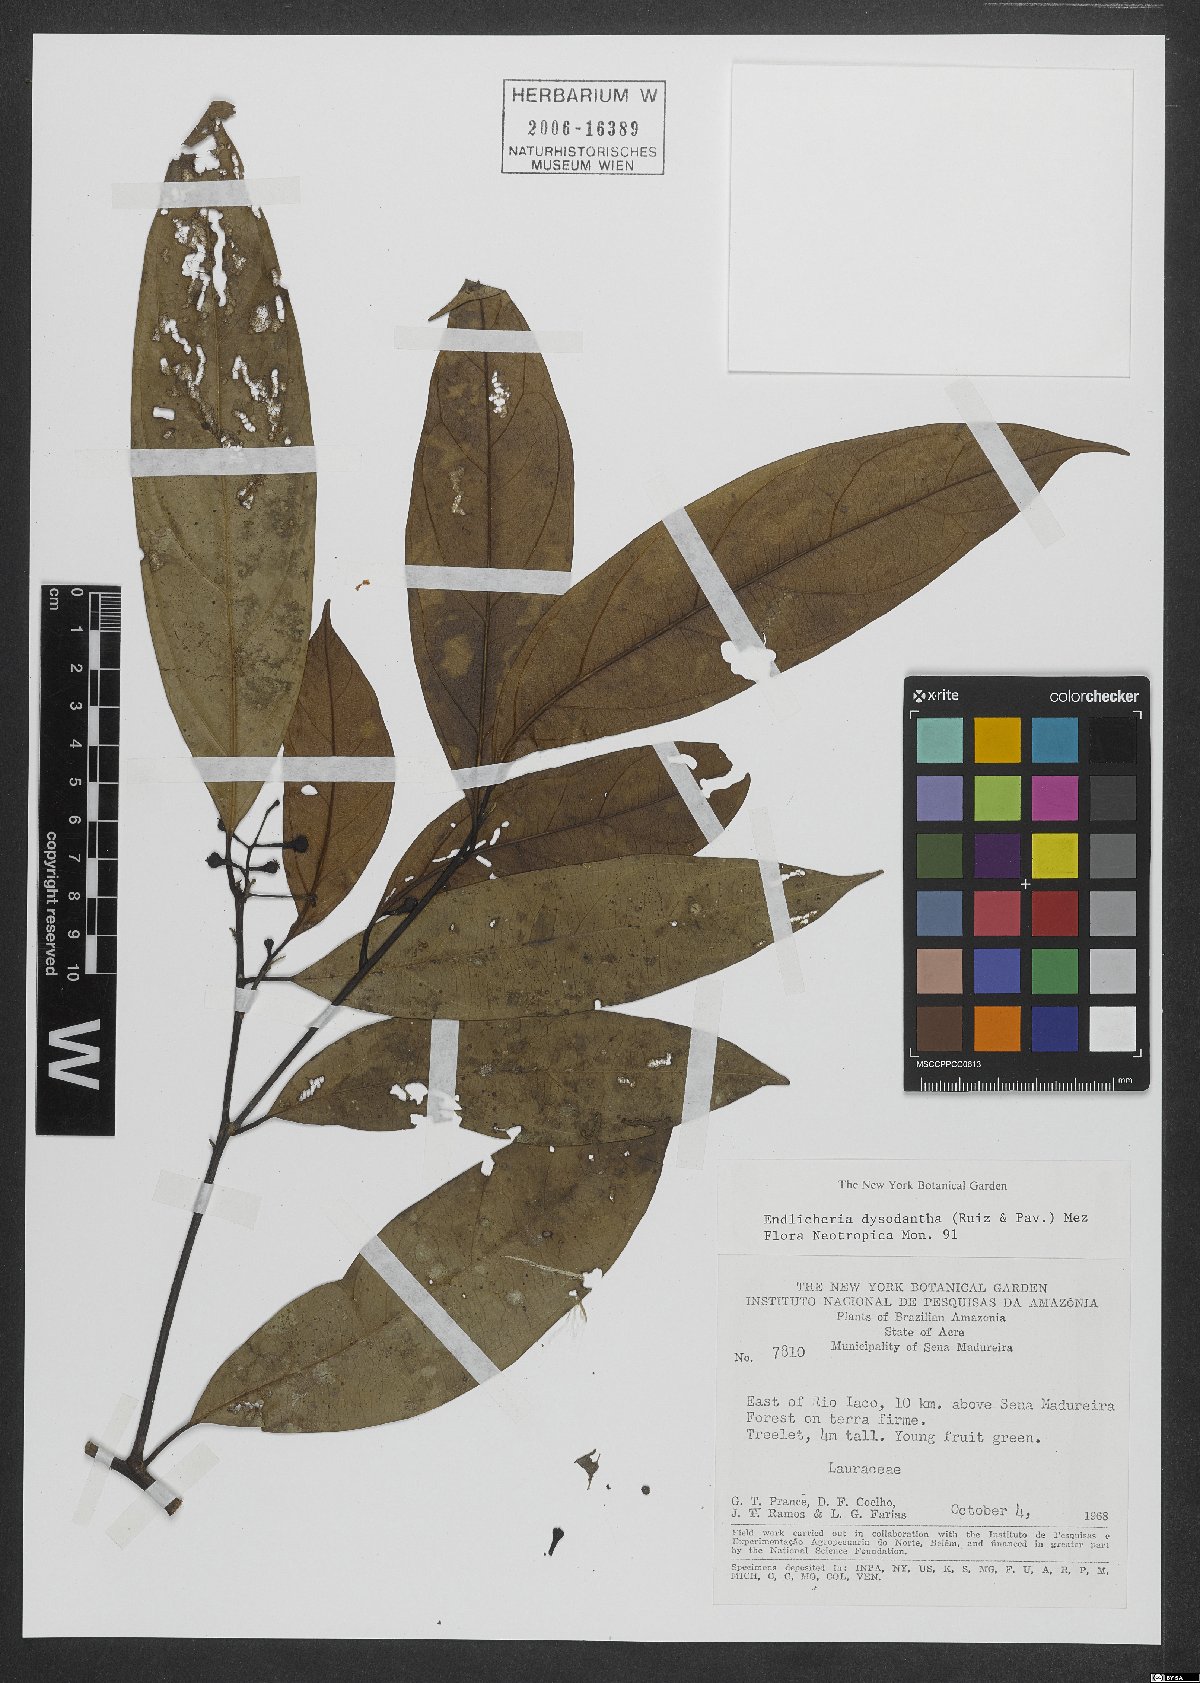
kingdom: Plantae
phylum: Tracheophyta
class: Magnoliopsida
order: Laurales
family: Lauraceae
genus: Endlicheria
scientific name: Endlicheria dysodantha
